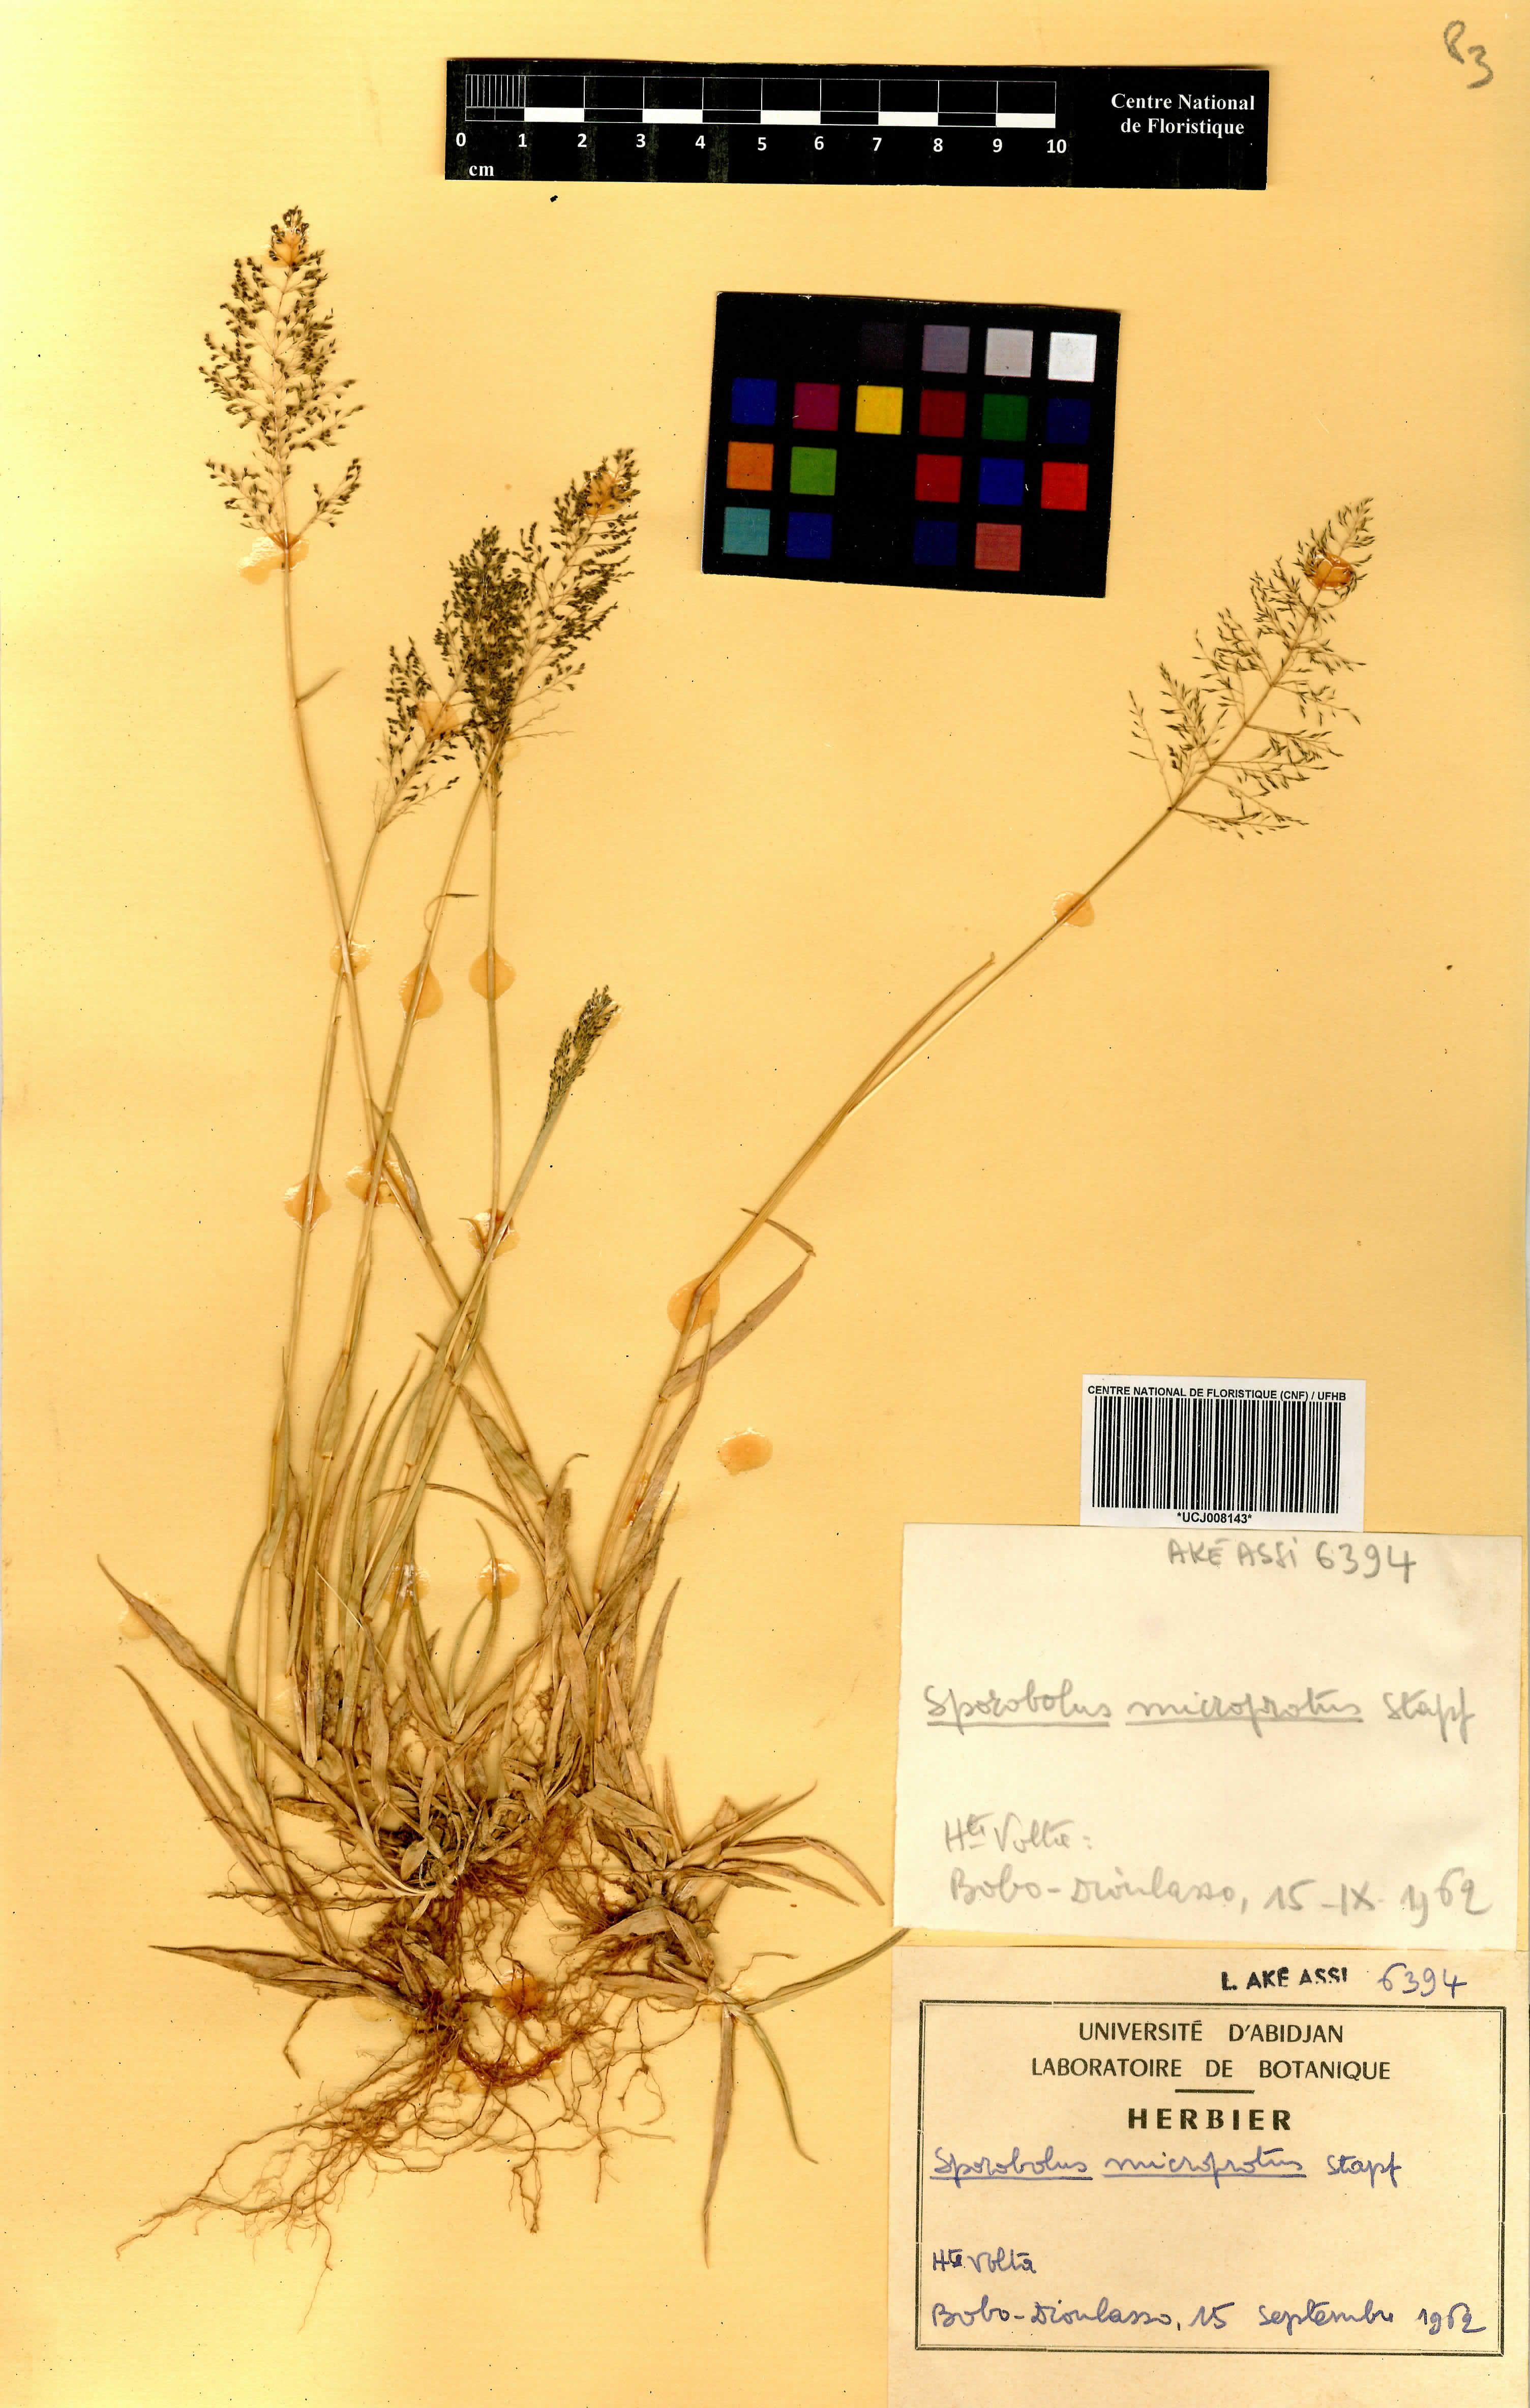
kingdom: Plantae
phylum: Tracheophyta
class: Liliopsida
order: Poales
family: Poaceae
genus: Sporobolus
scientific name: Sporobolus microprotus
